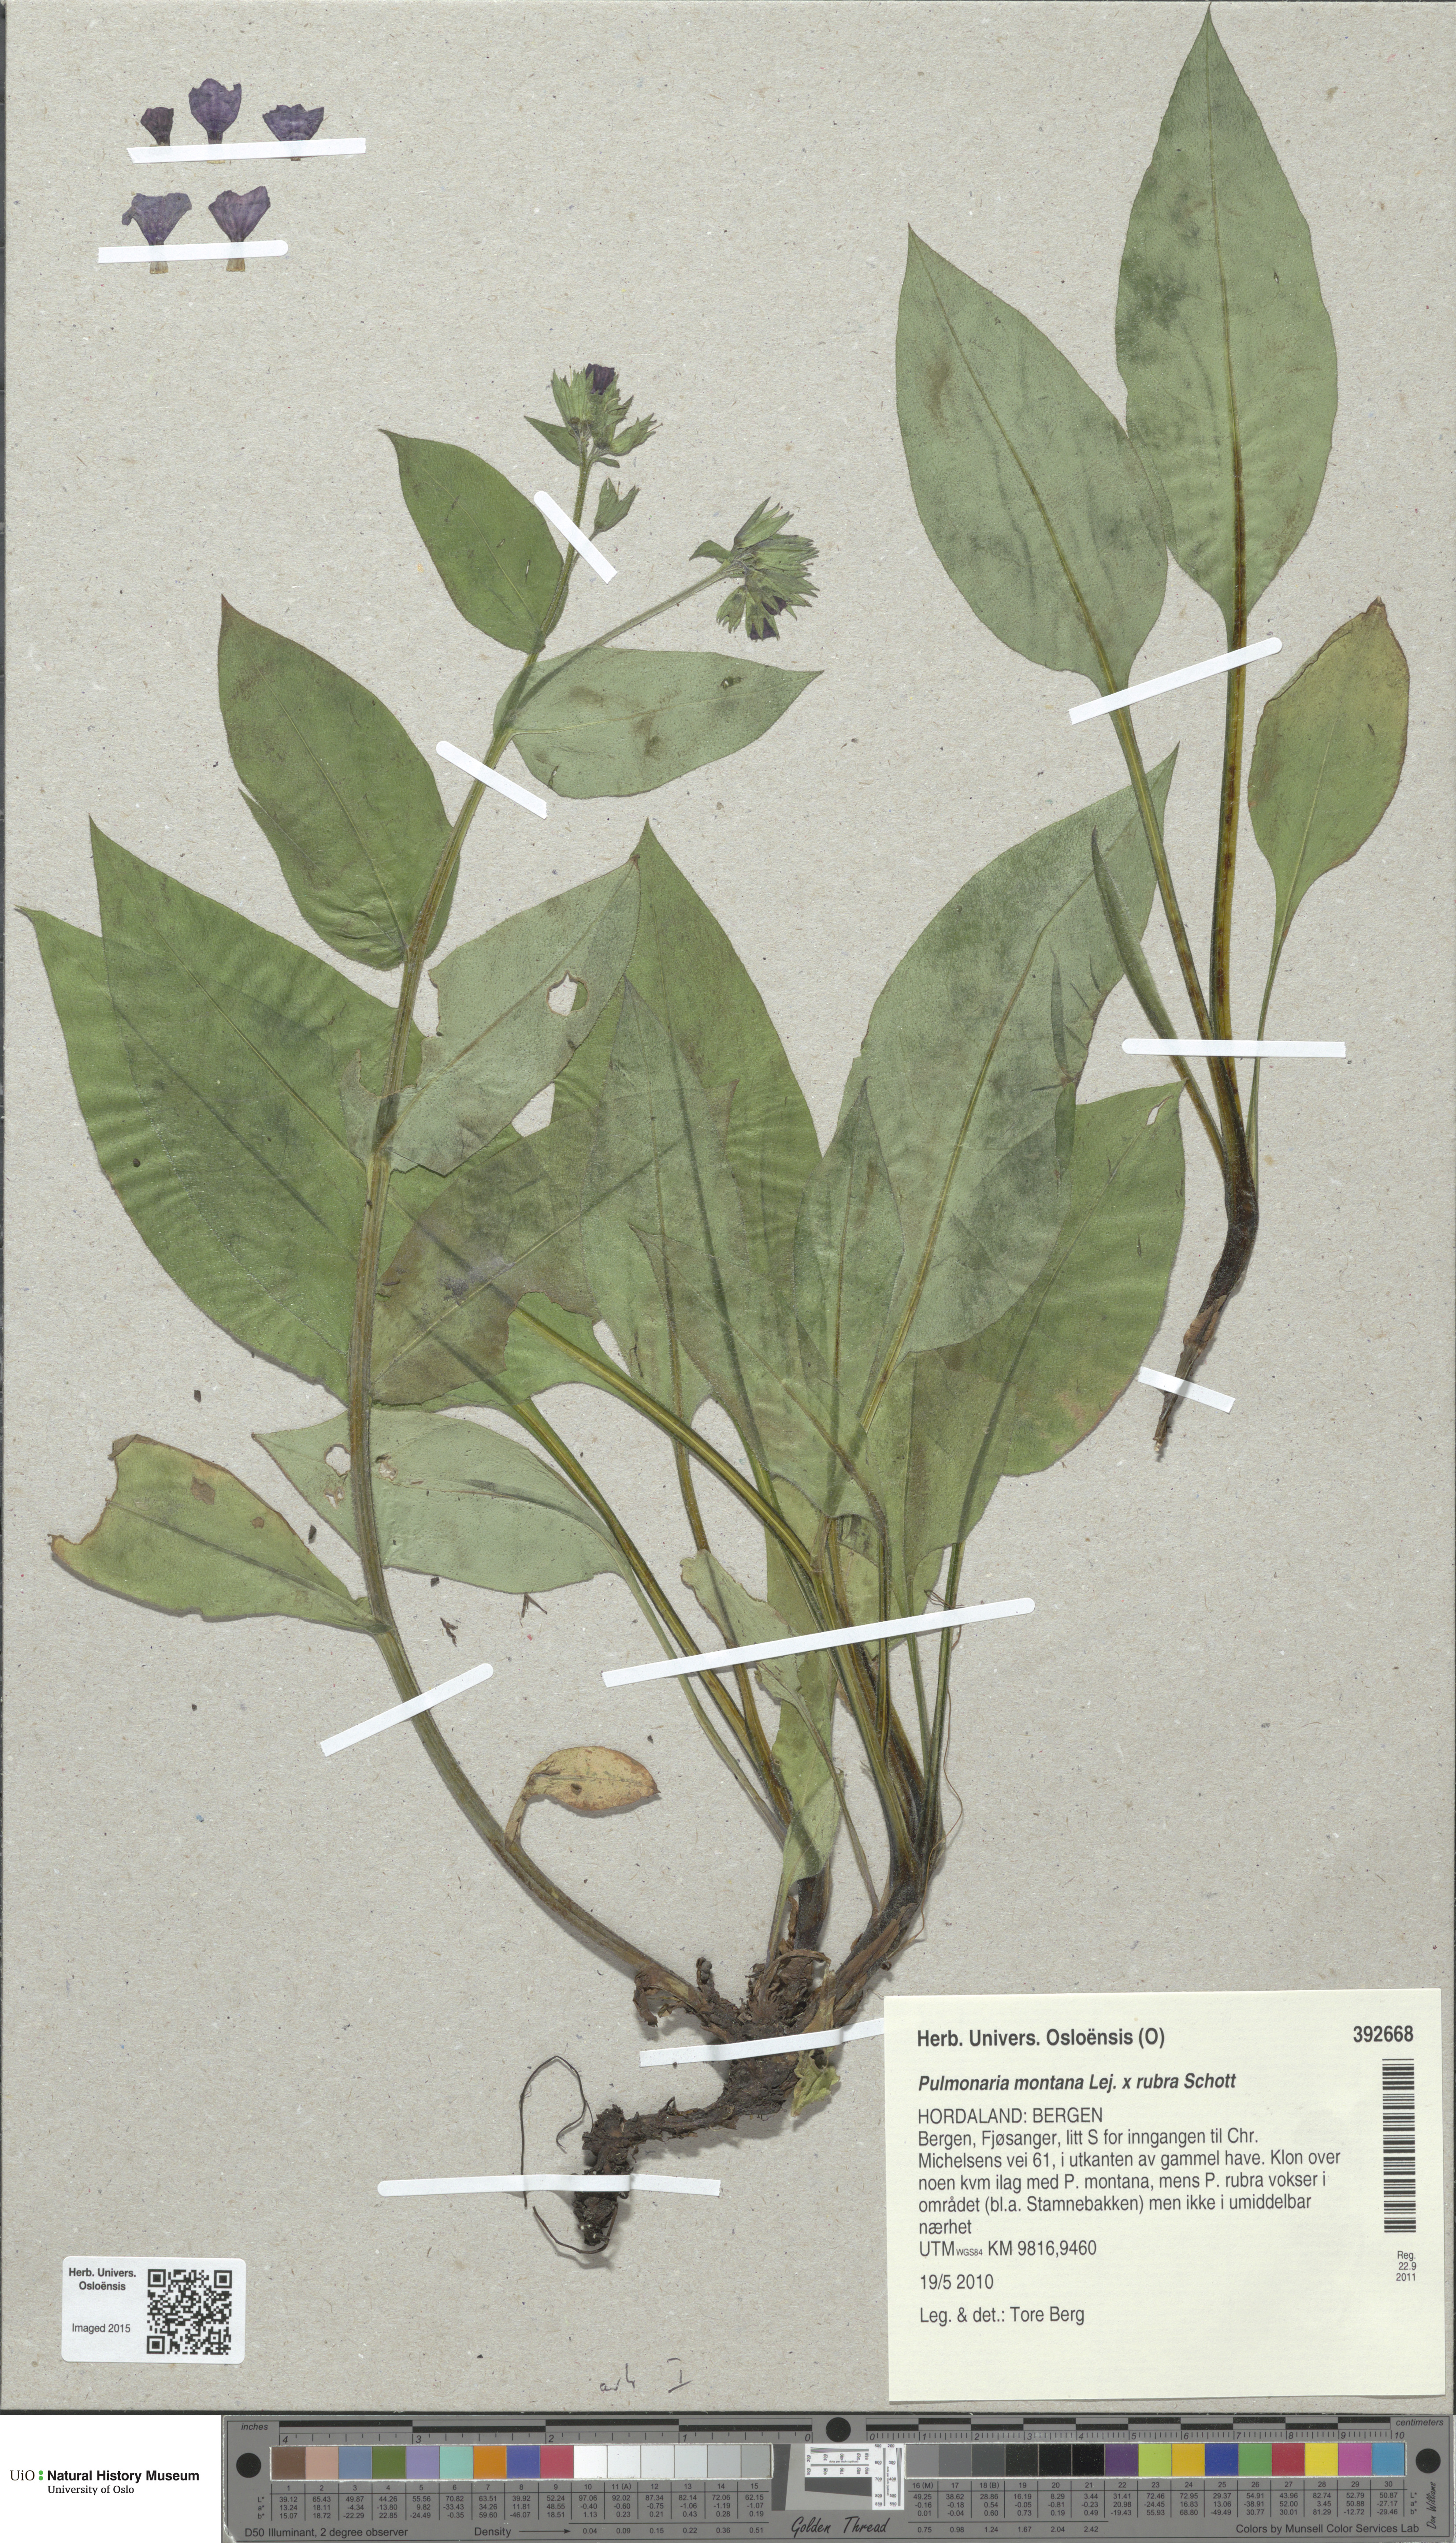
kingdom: Plantae
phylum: Tracheophyta
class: Magnoliopsida
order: Boraginales
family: Boraginaceae
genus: Pulmonaria
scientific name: Pulmonaria mollis
